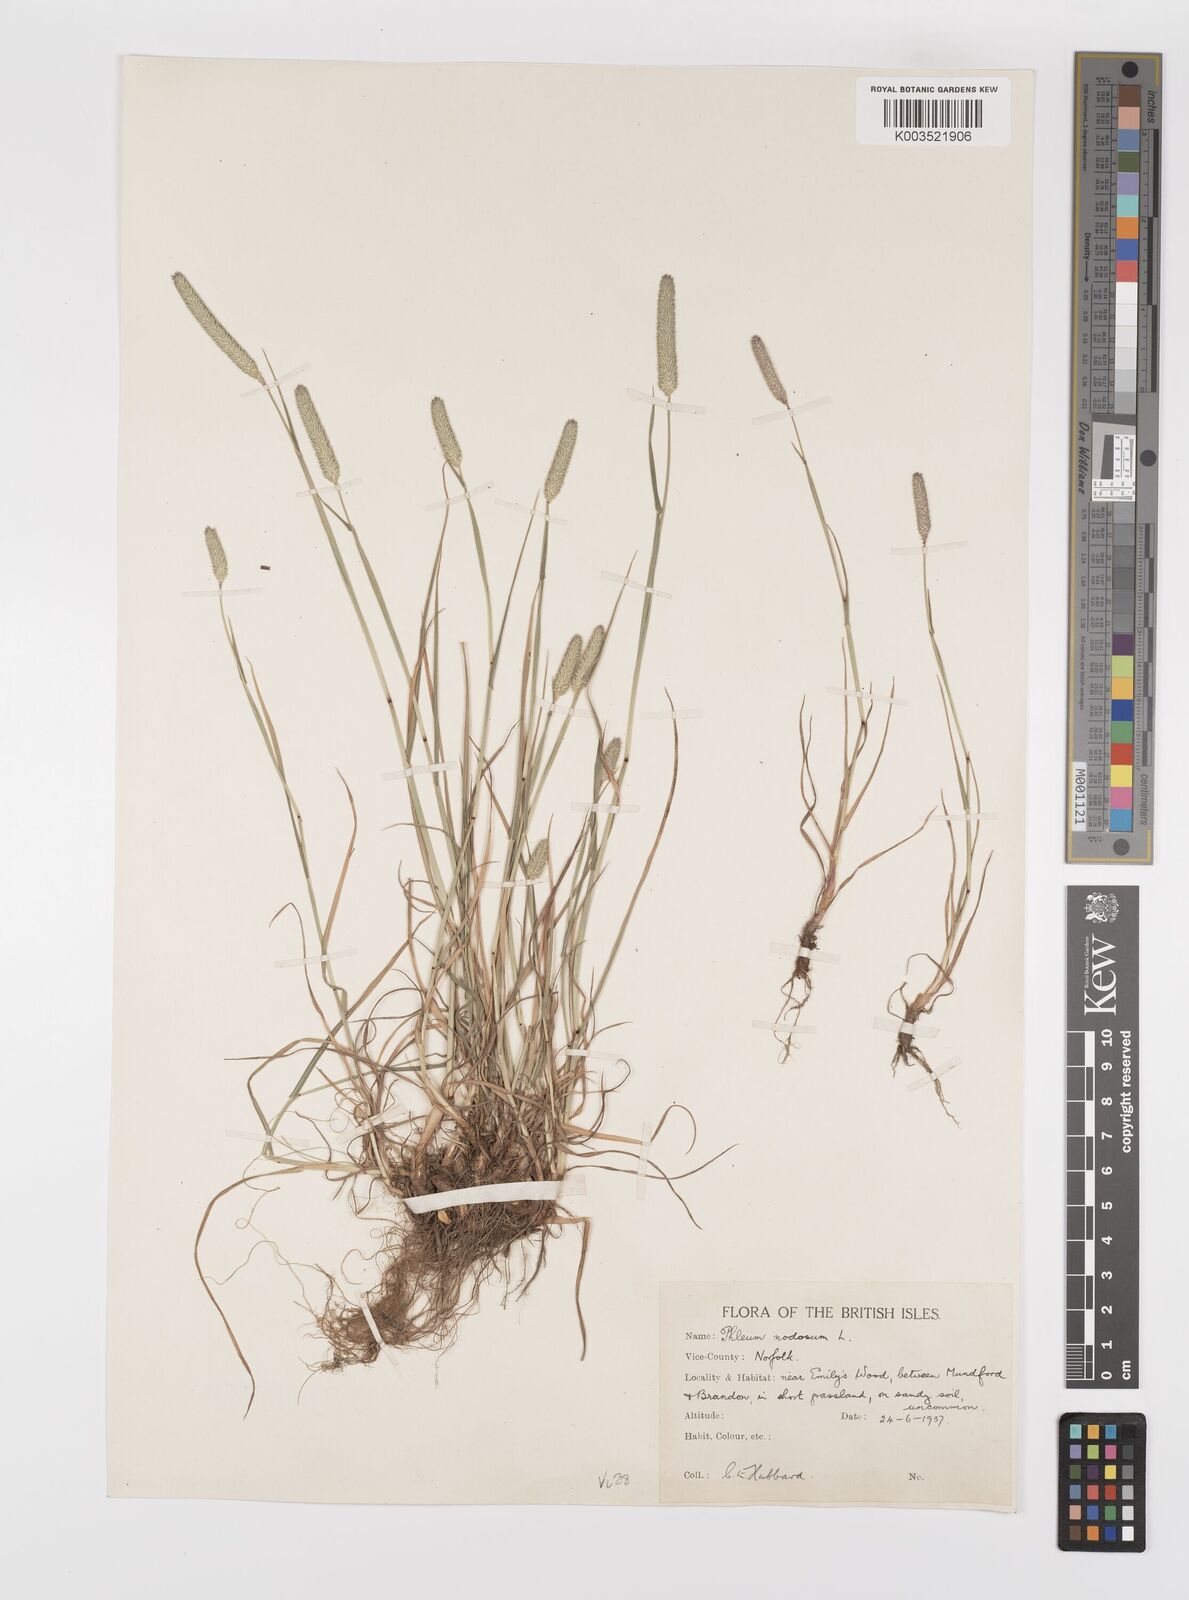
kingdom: Plantae
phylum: Tracheophyta
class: Liliopsida
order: Poales
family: Poaceae
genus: Phleum
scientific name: Phleum bertolonii
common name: Smaller cat's-tail
